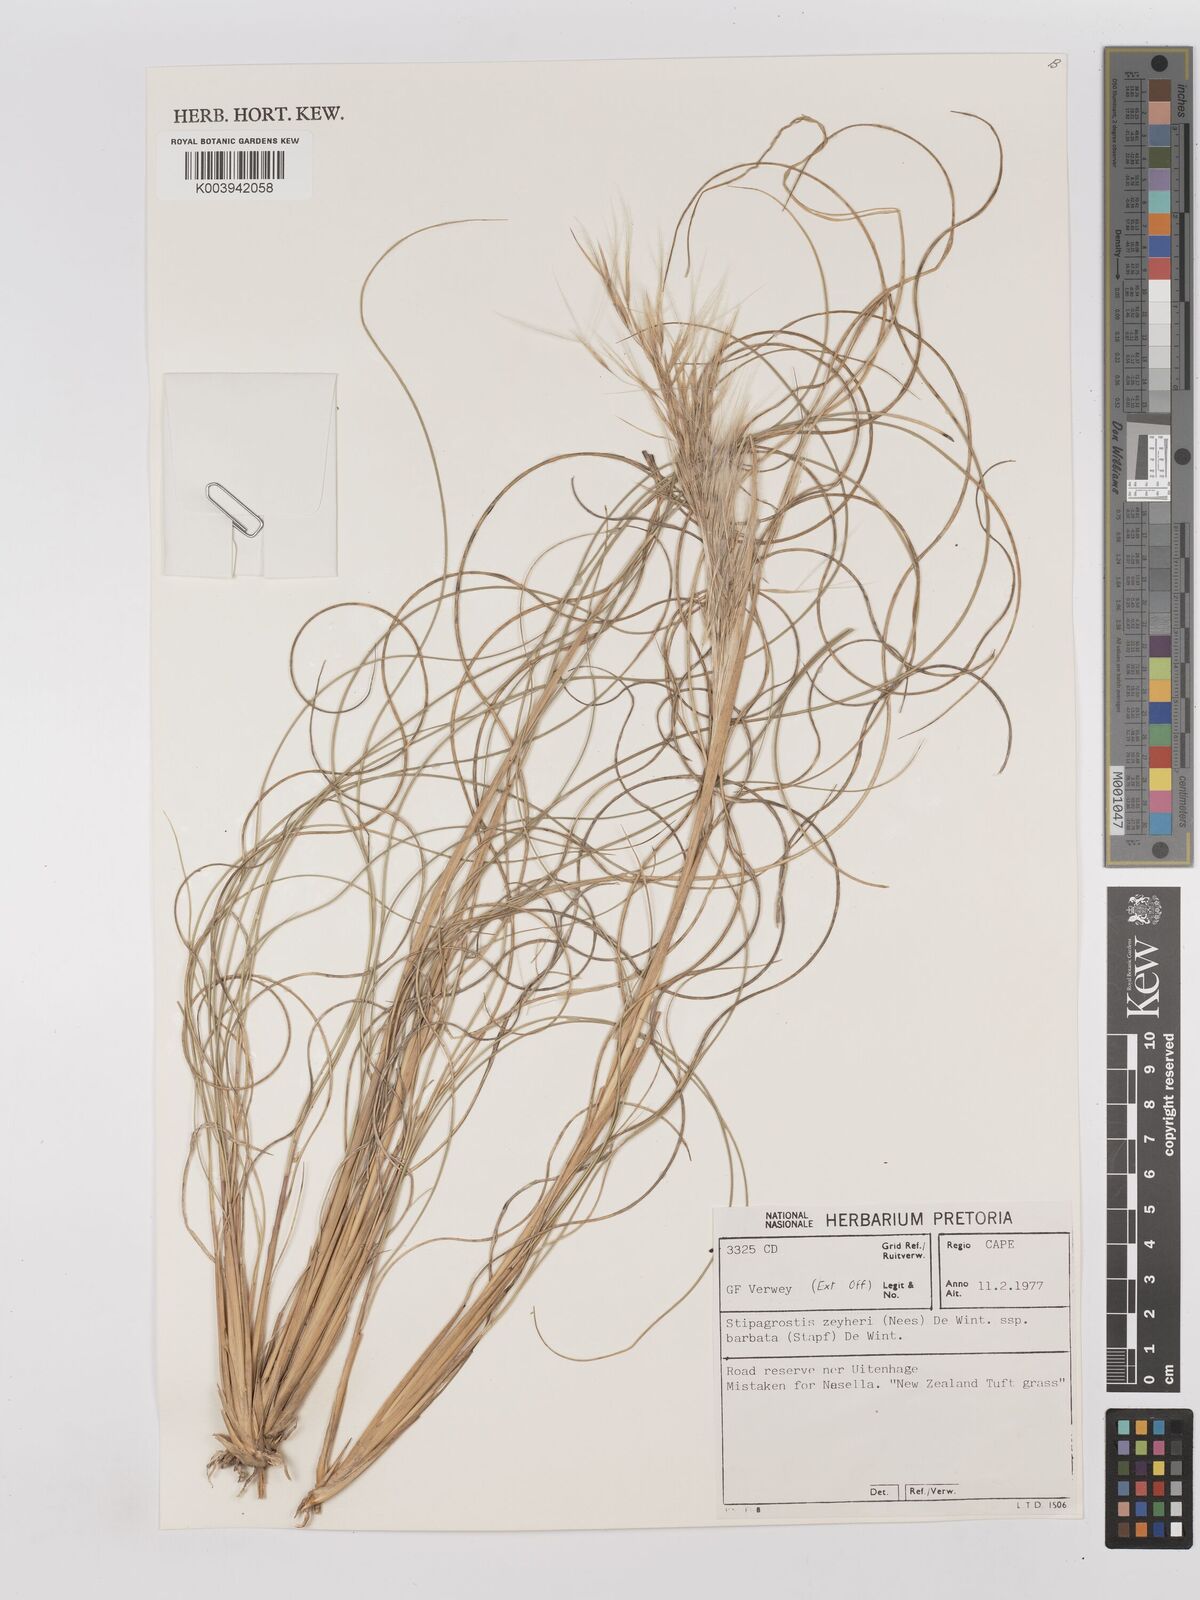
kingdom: Plantae
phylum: Tracheophyta
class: Liliopsida
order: Poales
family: Poaceae
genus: Stipagrostis
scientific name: Stipagrostis zeyheri
